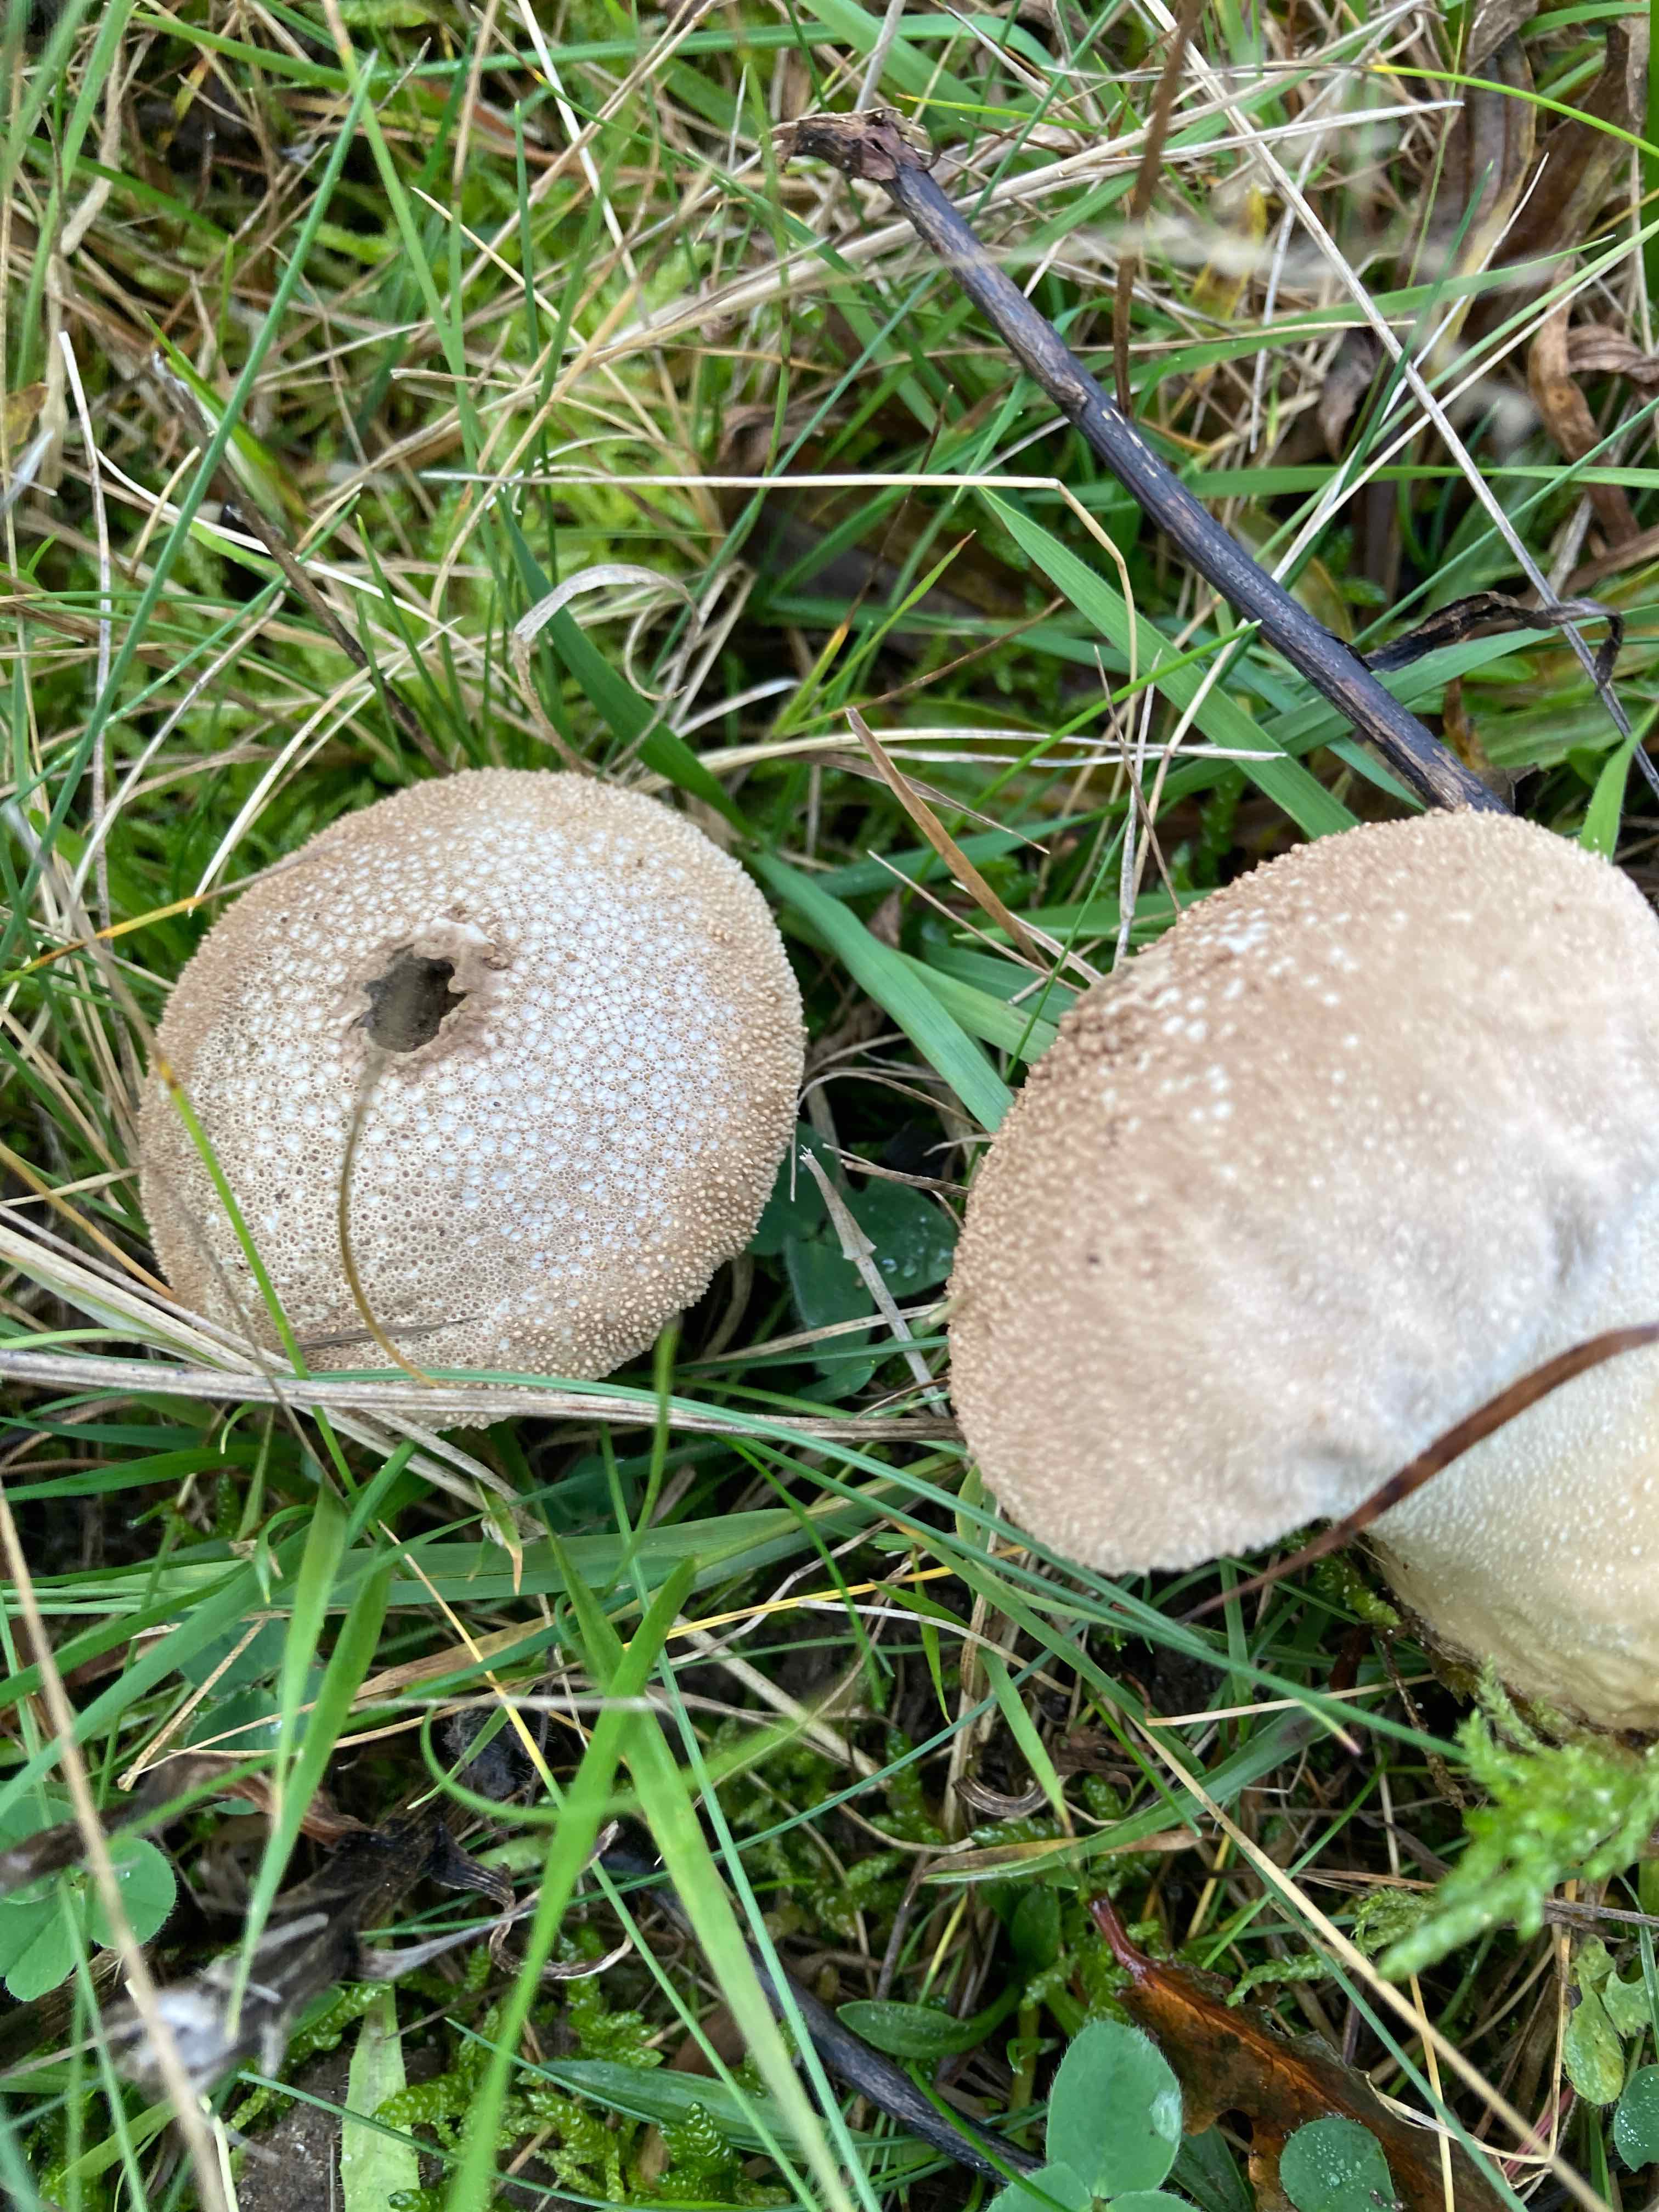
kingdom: Fungi
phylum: Basidiomycota
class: Agaricomycetes
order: Agaricales
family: Lycoperdaceae
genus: Lycoperdon
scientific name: Lycoperdon perlatum
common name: krystal-støvbold
